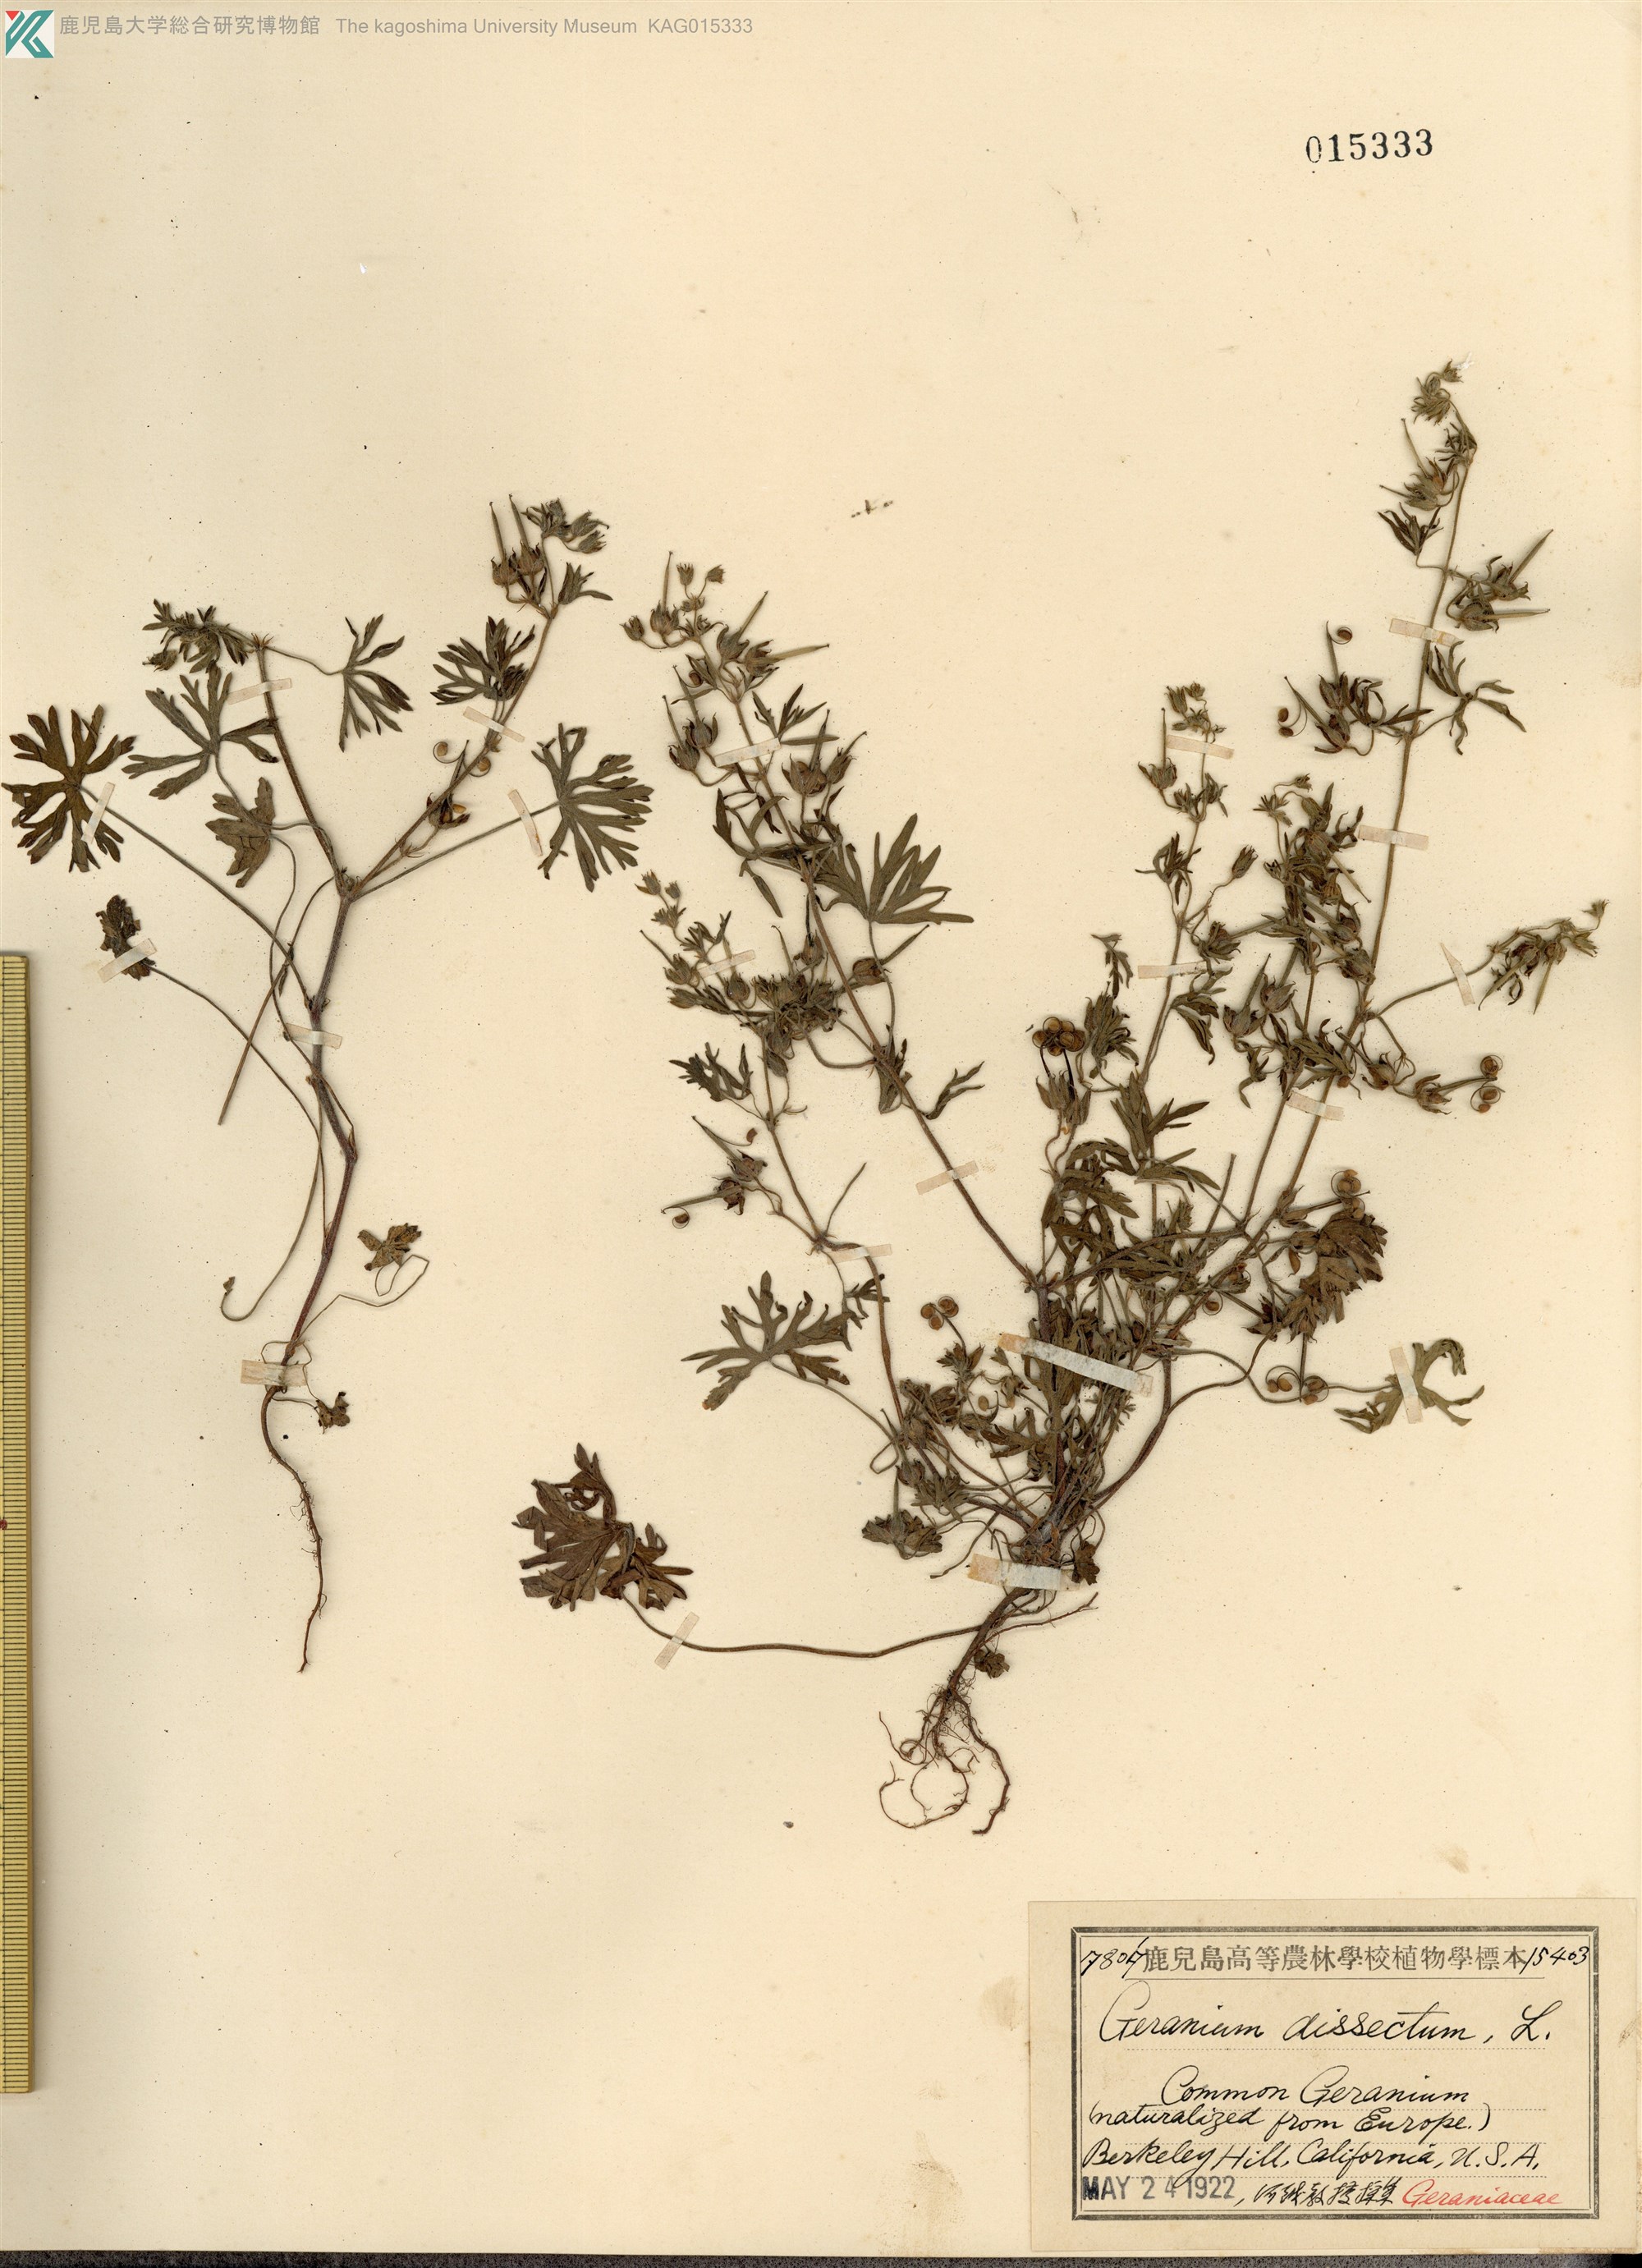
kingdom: Plantae
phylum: Tracheophyta
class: Magnoliopsida
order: Geraniales
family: Geraniaceae
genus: Geranium
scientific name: Geranium dissectum
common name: Cut-leaved crane's-bill
